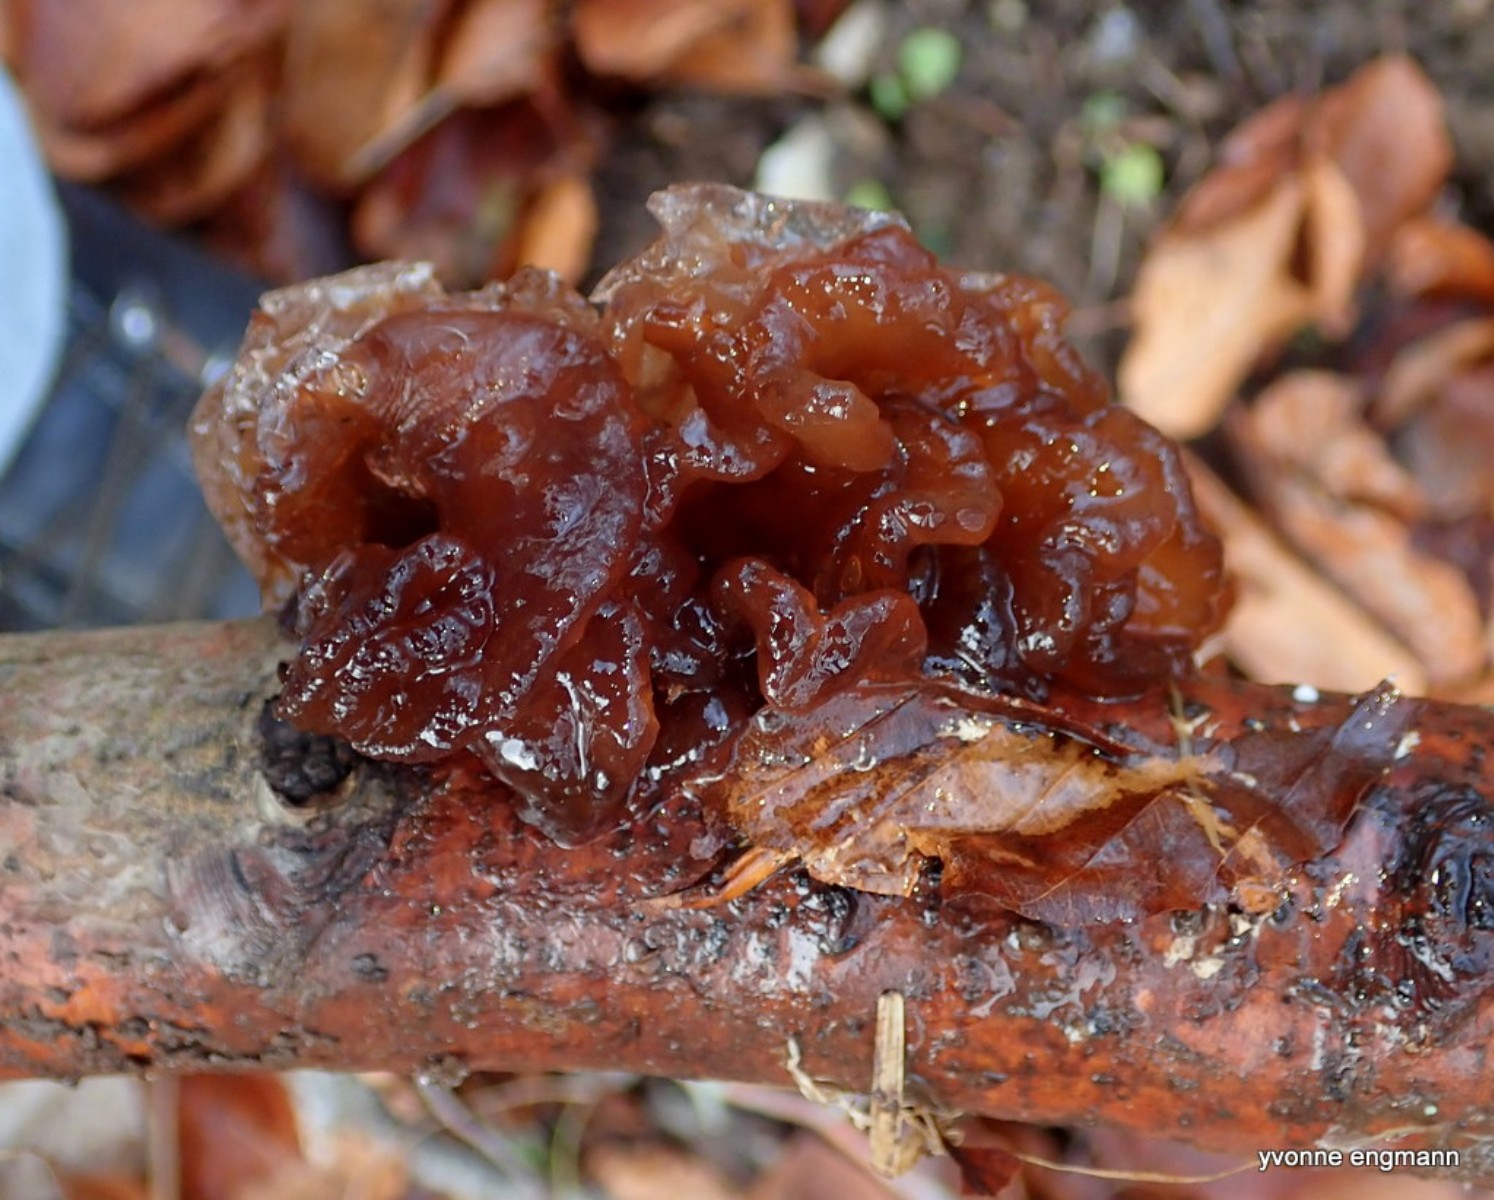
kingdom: Fungi
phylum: Basidiomycota
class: Tremellomycetes
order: Tremellales
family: Tremellaceae
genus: Phaeotremella
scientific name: Phaeotremella frondosa
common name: kæmpe-bævresvamp
